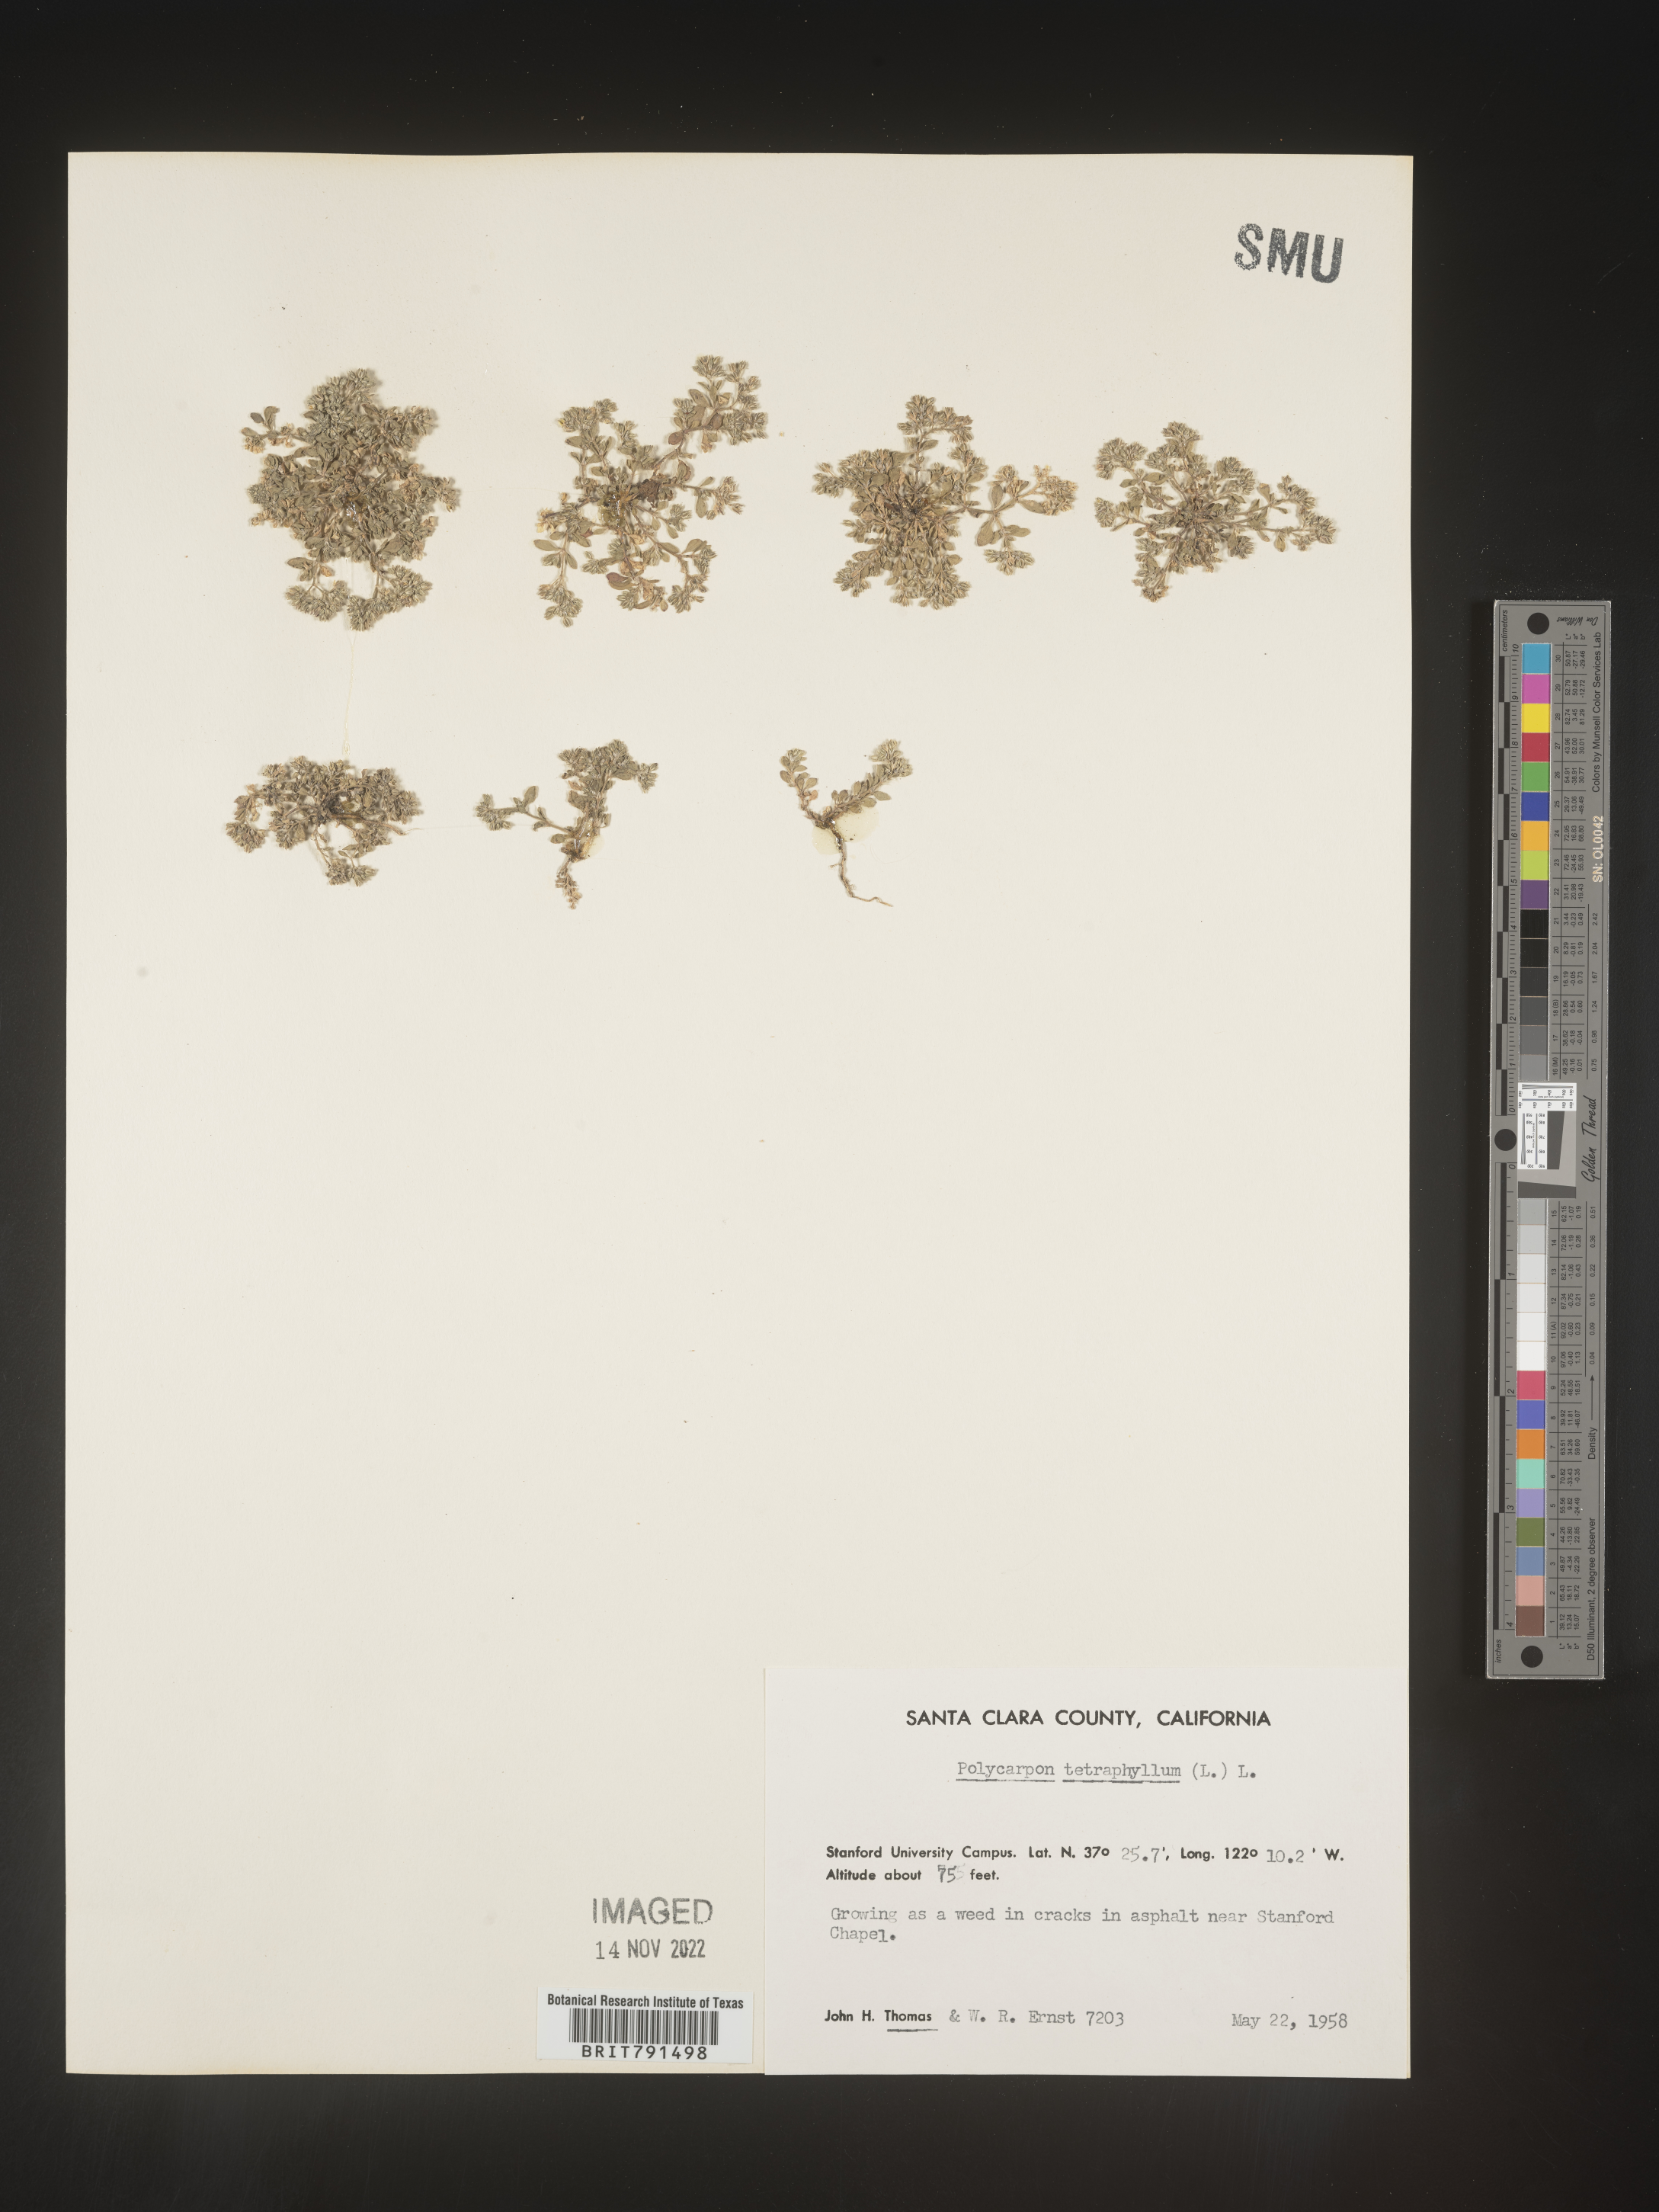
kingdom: Plantae
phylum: Tracheophyta
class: Magnoliopsida
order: Caryophyllales
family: Caryophyllaceae
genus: Polycarpon
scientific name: Polycarpon
